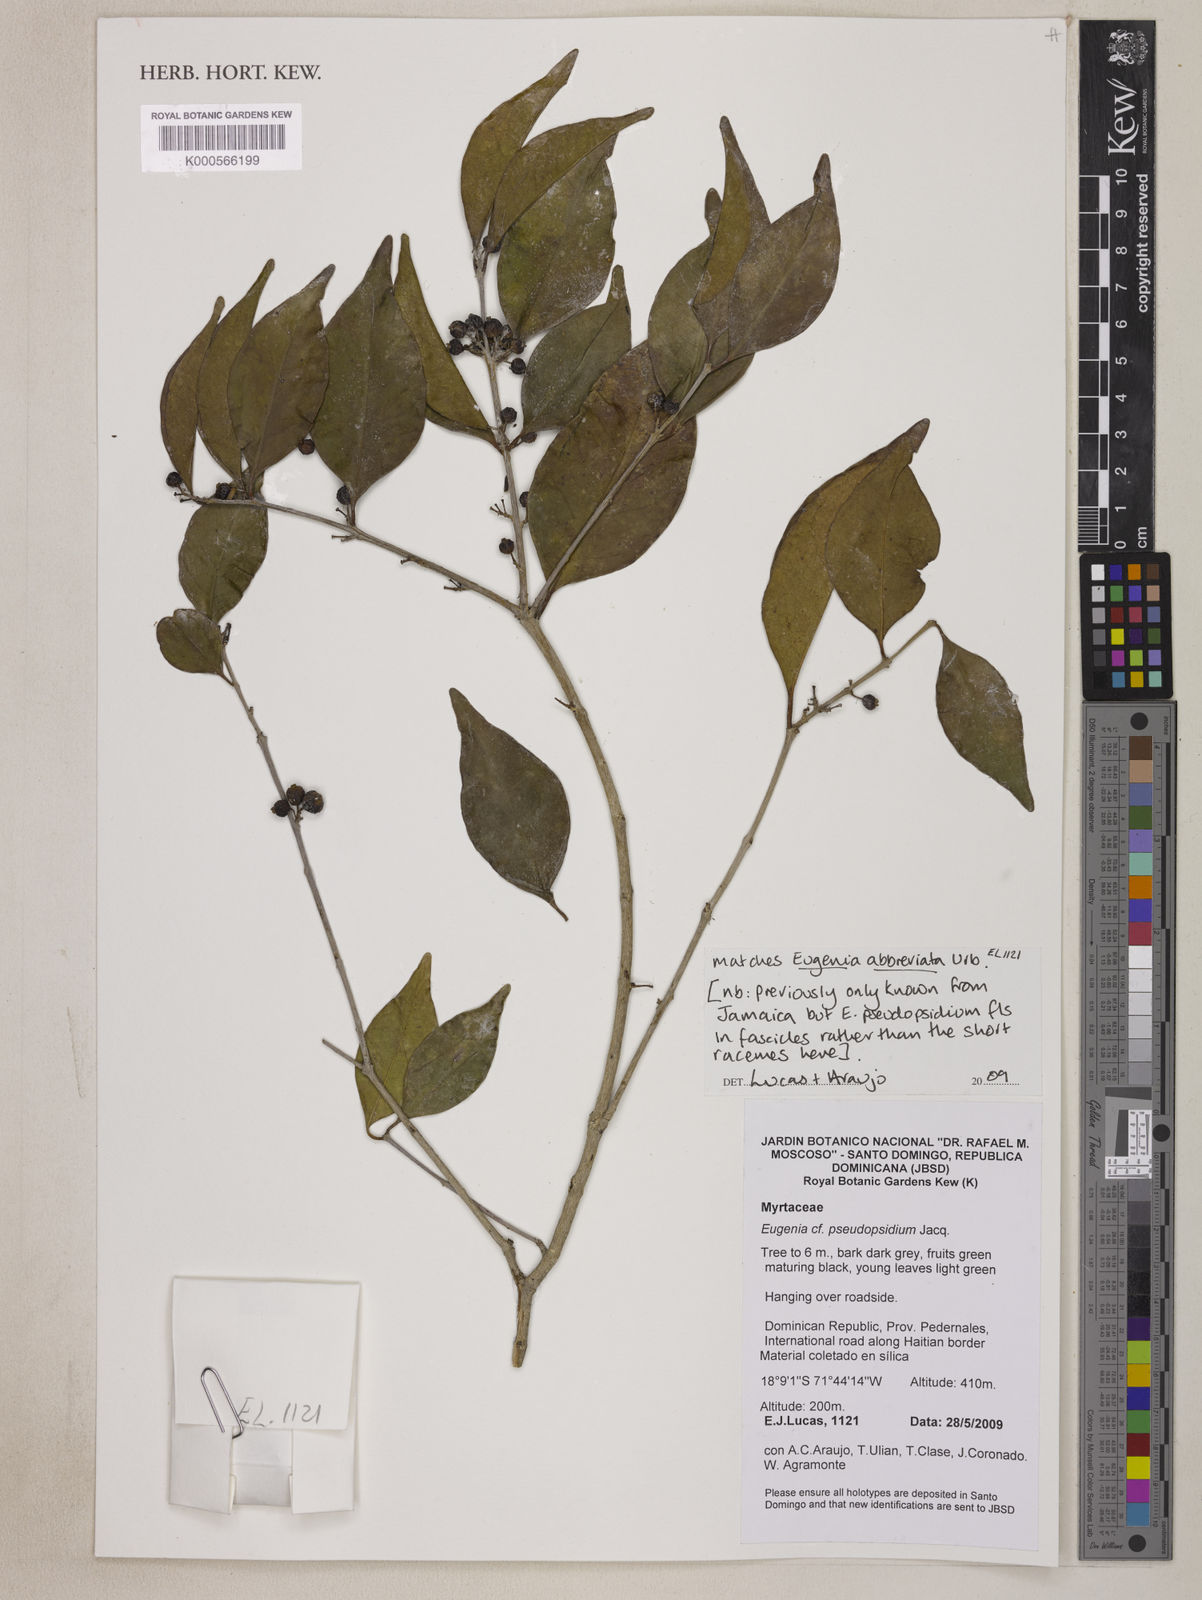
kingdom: Plantae
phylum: Tracheophyta
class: Magnoliopsida
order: Myrtales
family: Myrtaceae
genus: Eugenia
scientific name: Eugenia abbreviata
